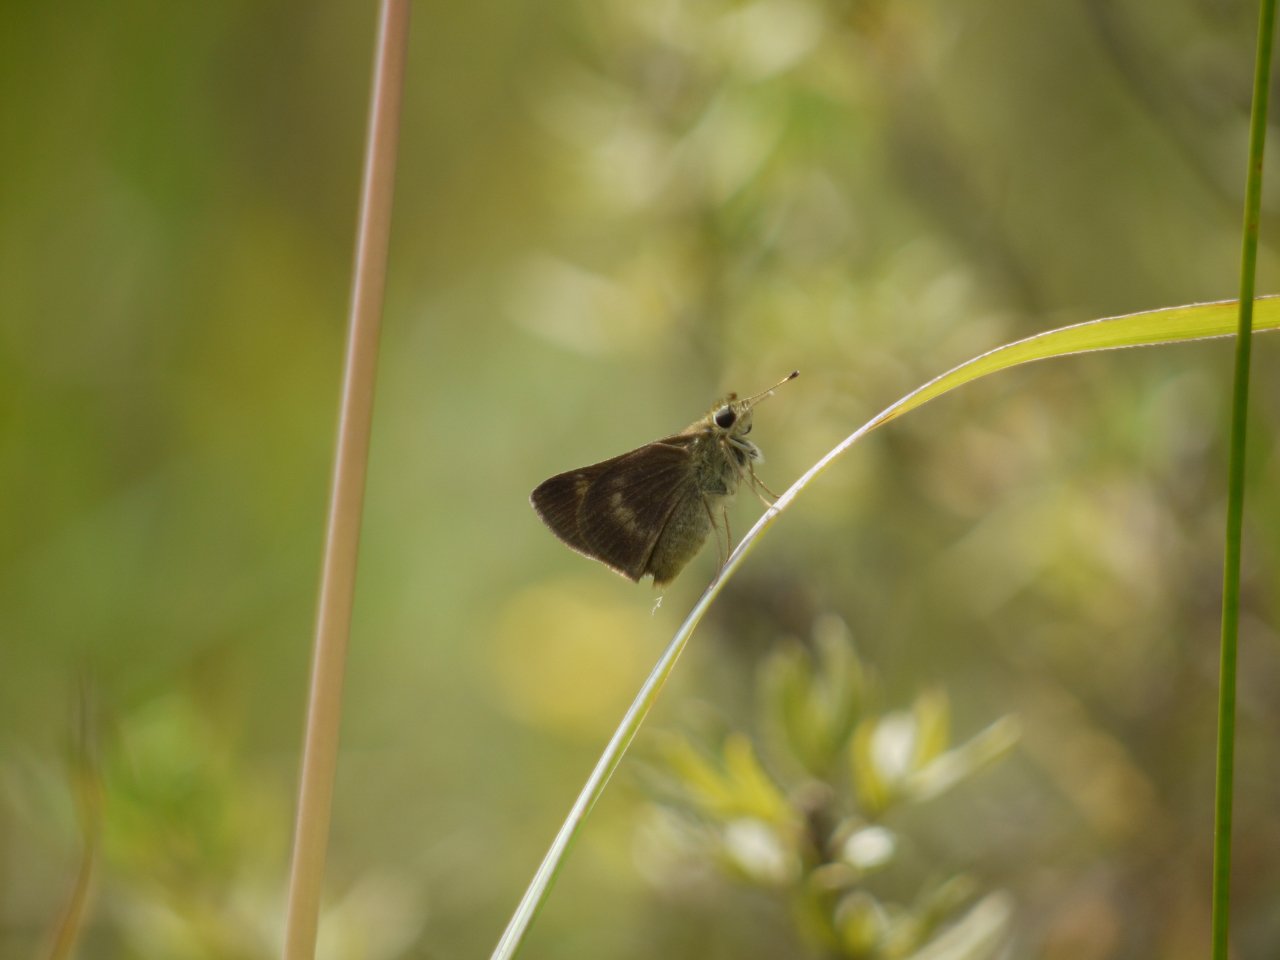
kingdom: Animalia
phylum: Arthropoda
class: Insecta
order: Lepidoptera
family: Hesperiidae
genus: Euphyes
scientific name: Euphyes
